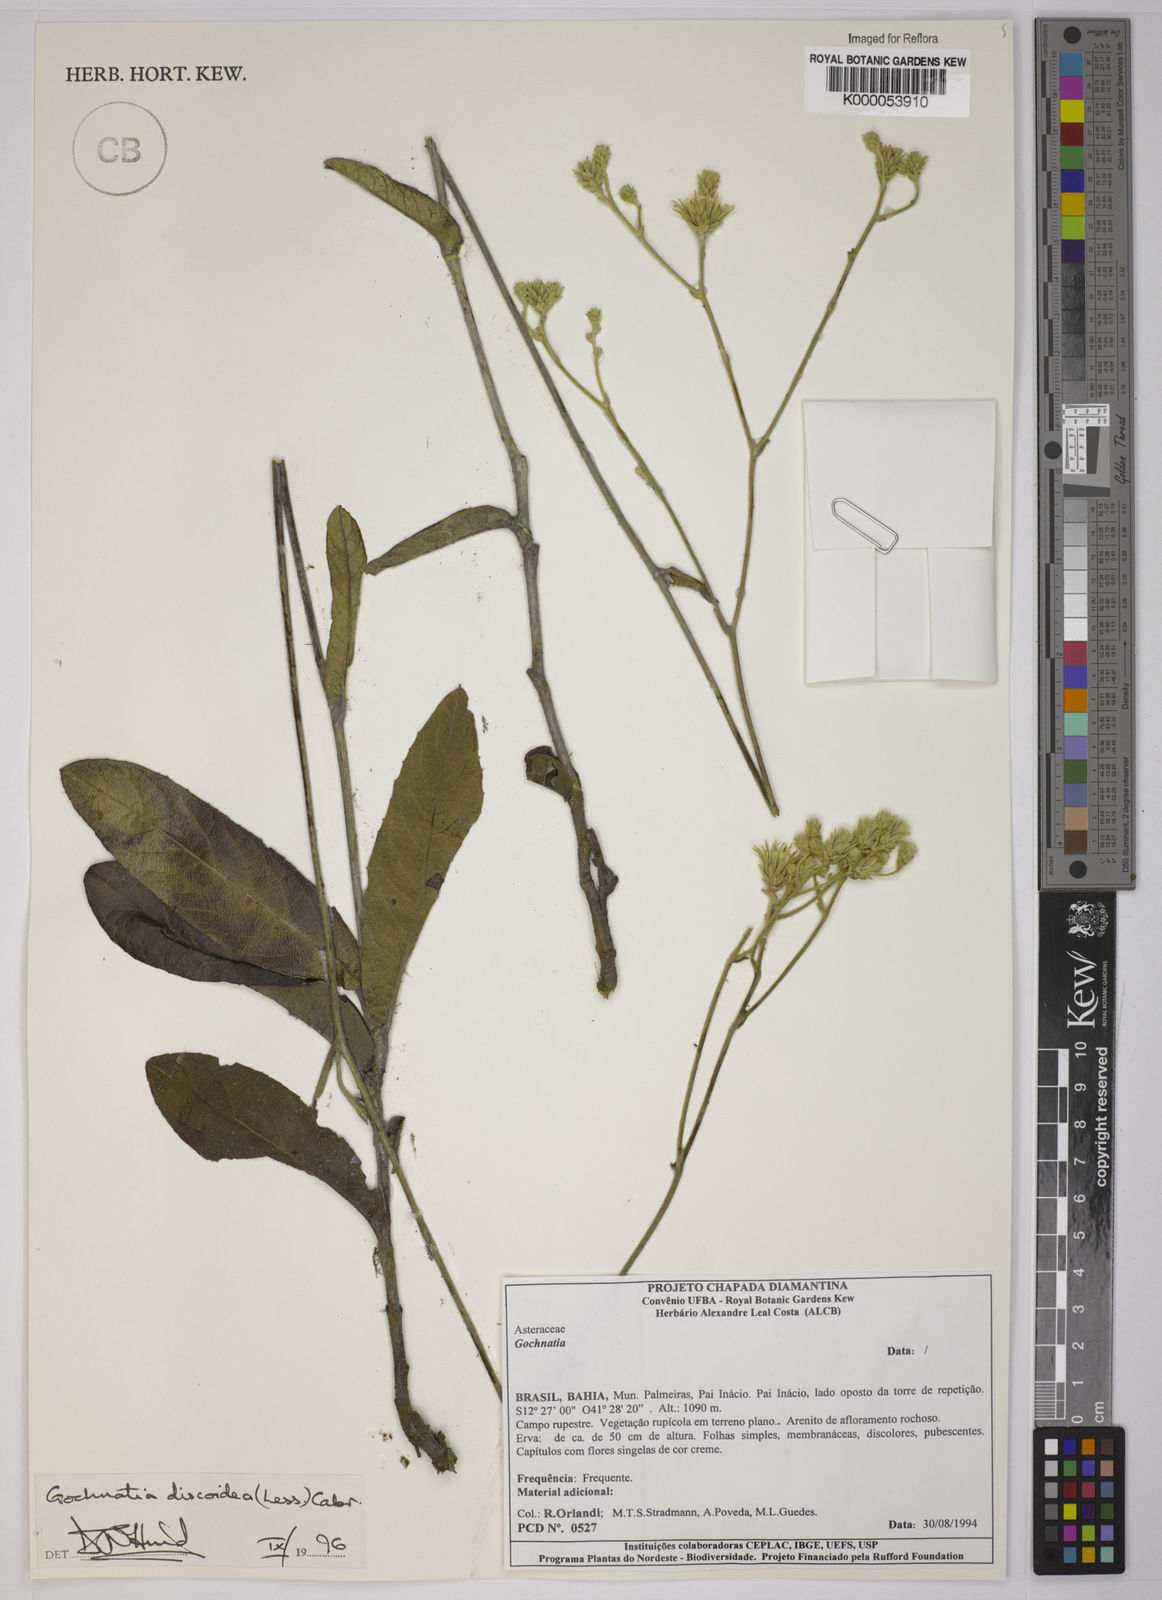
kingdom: Plantae
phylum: Tracheophyta
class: Magnoliopsida
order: Asterales
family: Asteraceae
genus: Richterago
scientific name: Richterago discoidea
